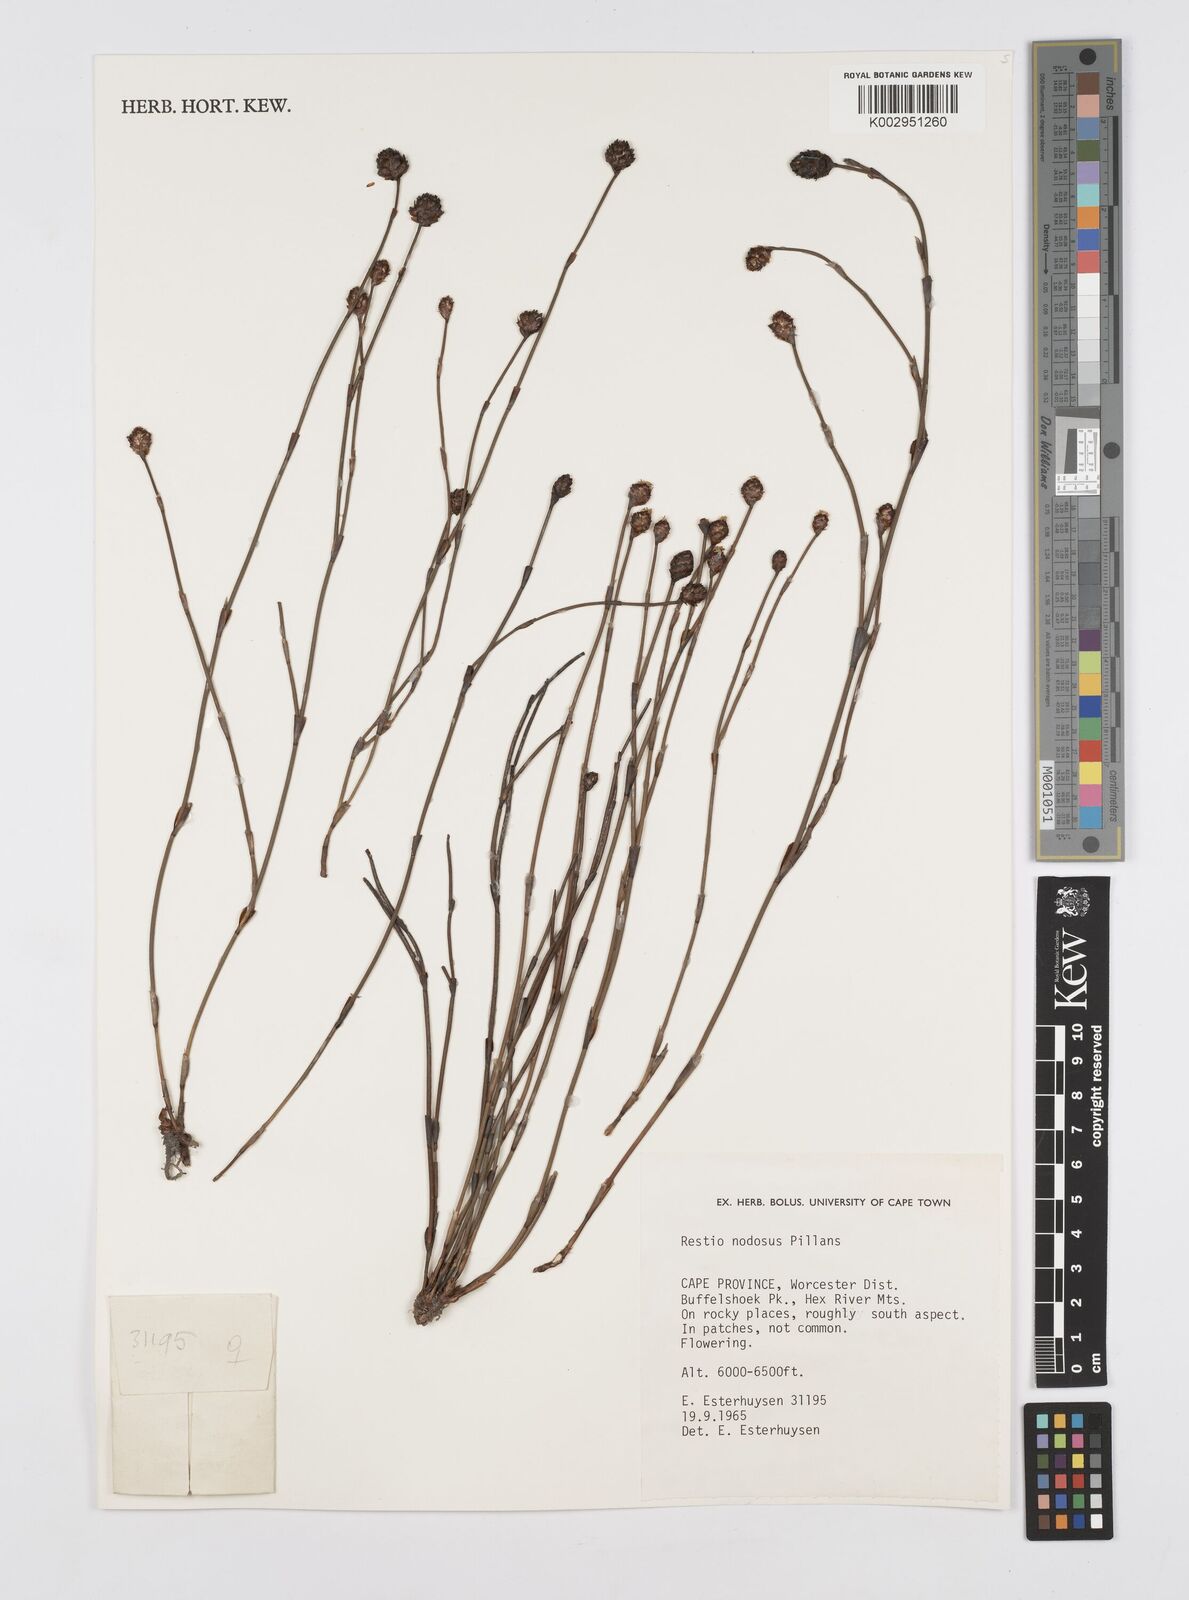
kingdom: Plantae
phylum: Tracheophyta
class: Liliopsida
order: Poales
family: Restionaceae
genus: Restio
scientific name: Restio nodosus
